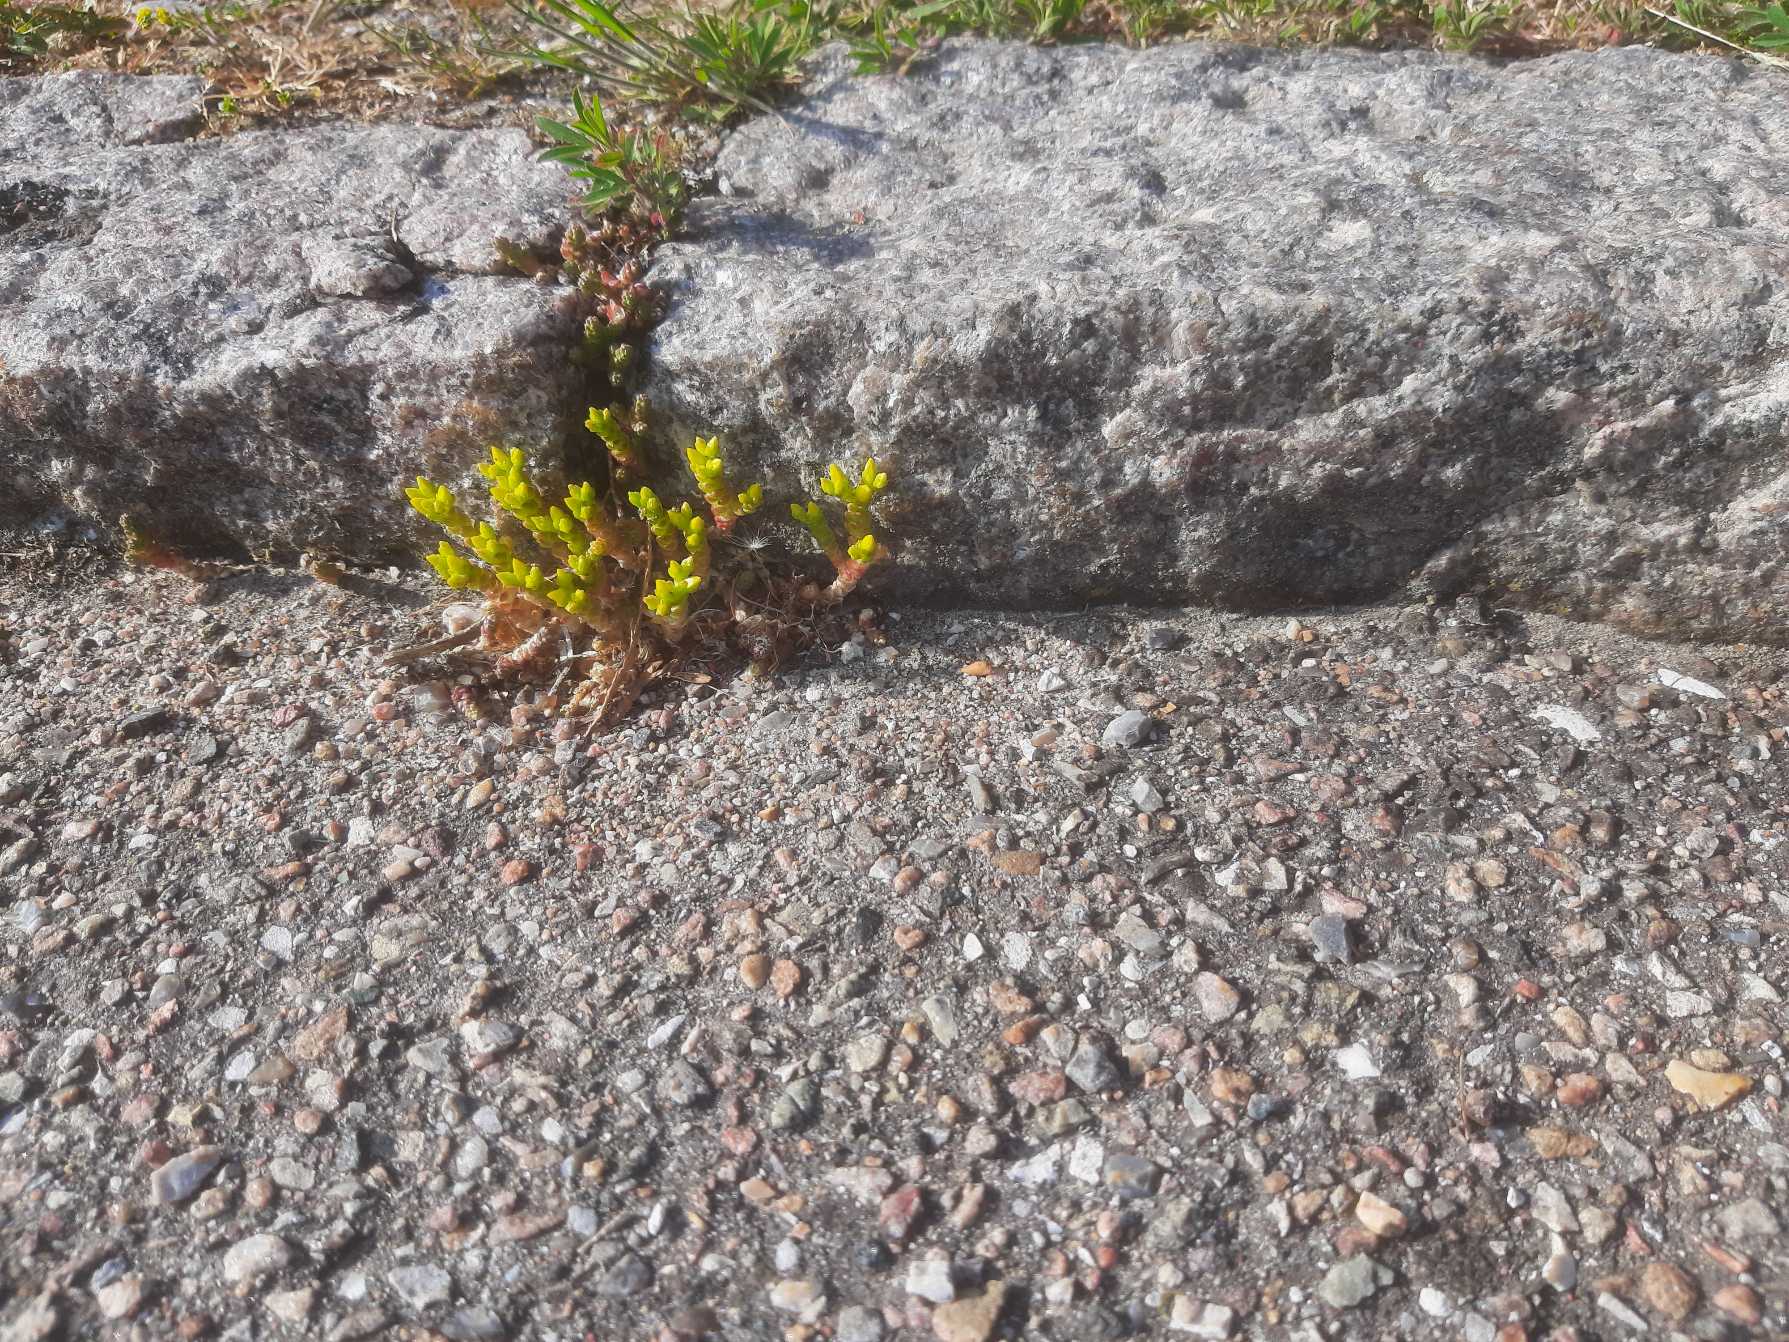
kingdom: Plantae
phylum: Tracheophyta
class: Magnoliopsida
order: Saxifragales
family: Crassulaceae
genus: Sedum
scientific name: Sedum acre
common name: Bidende stenurt
